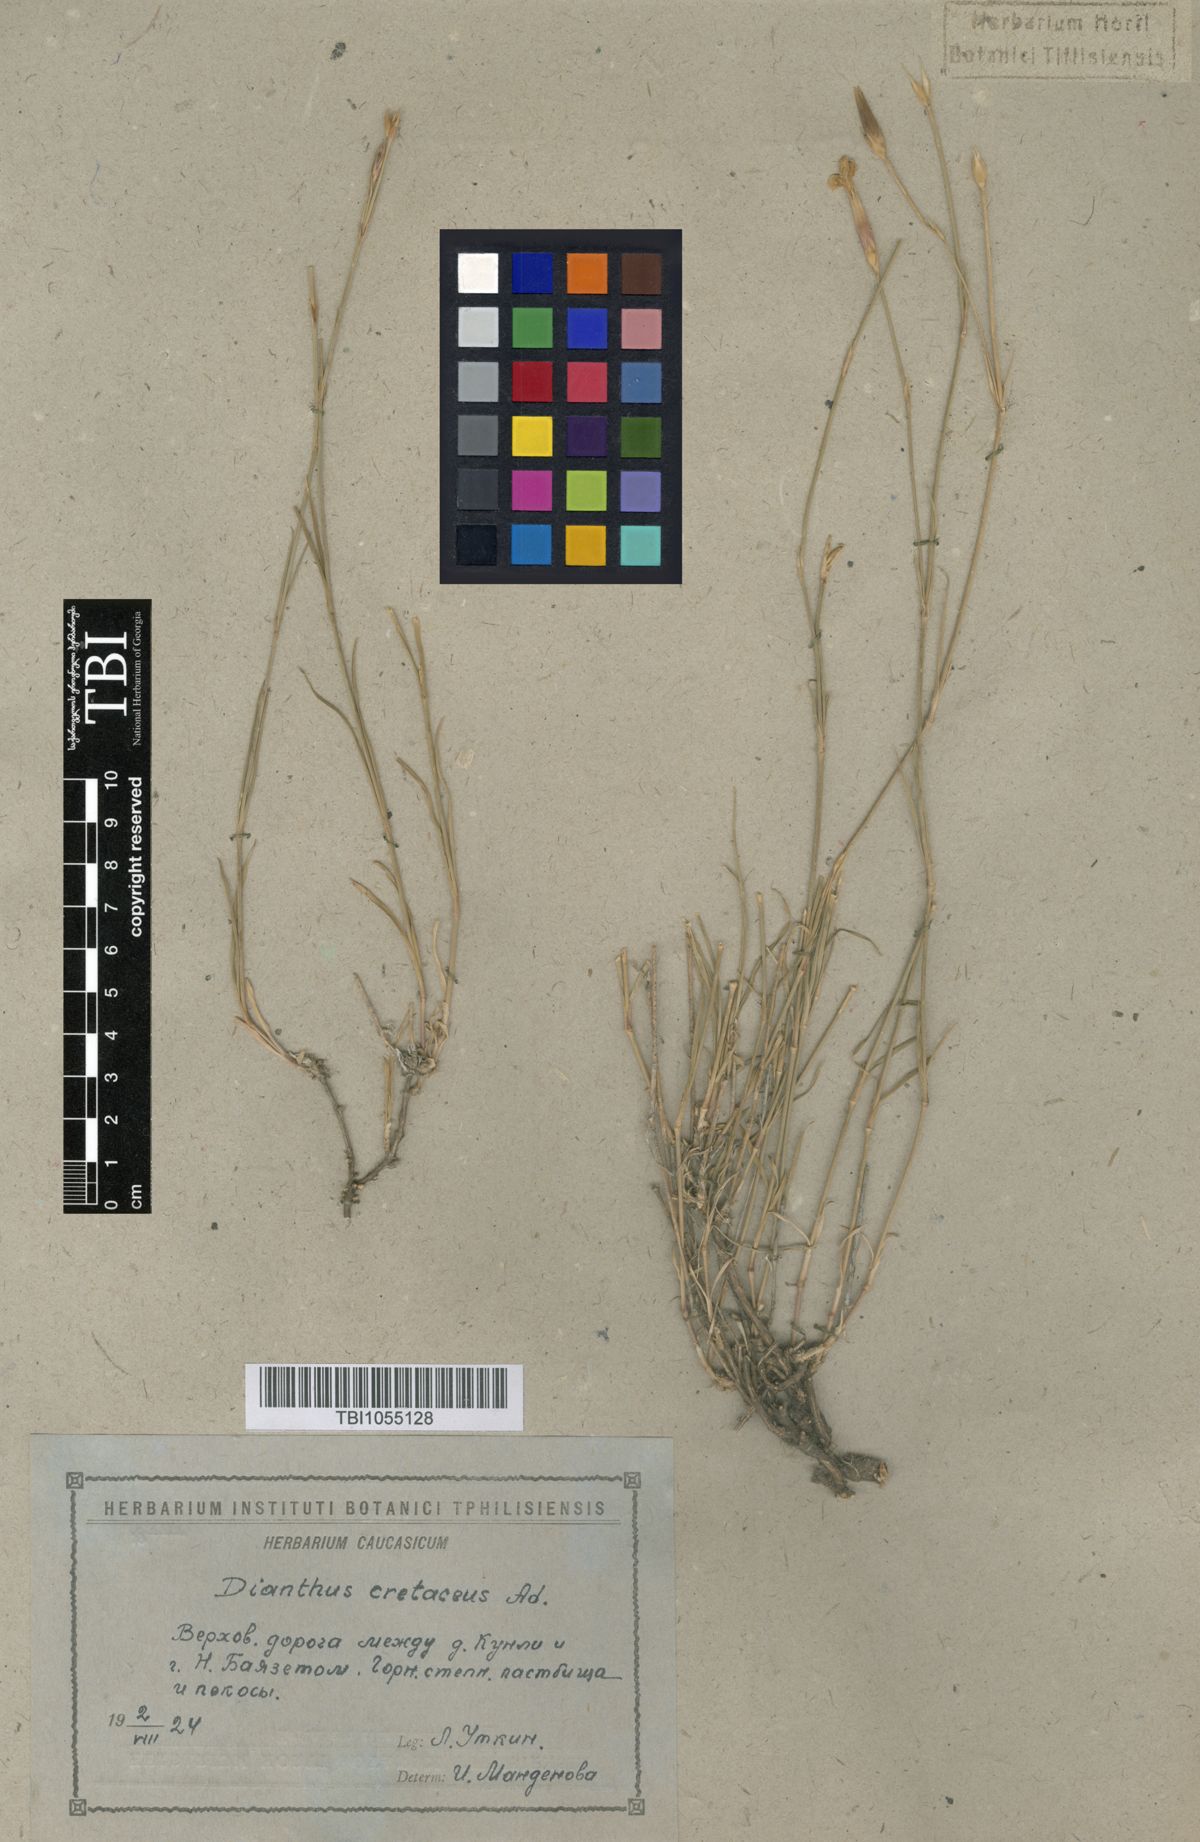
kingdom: Plantae
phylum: Tracheophyta
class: Magnoliopsida
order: Caryophyllales
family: Caryophyllaceae
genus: Dianthus
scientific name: Dianthus cretaceus
